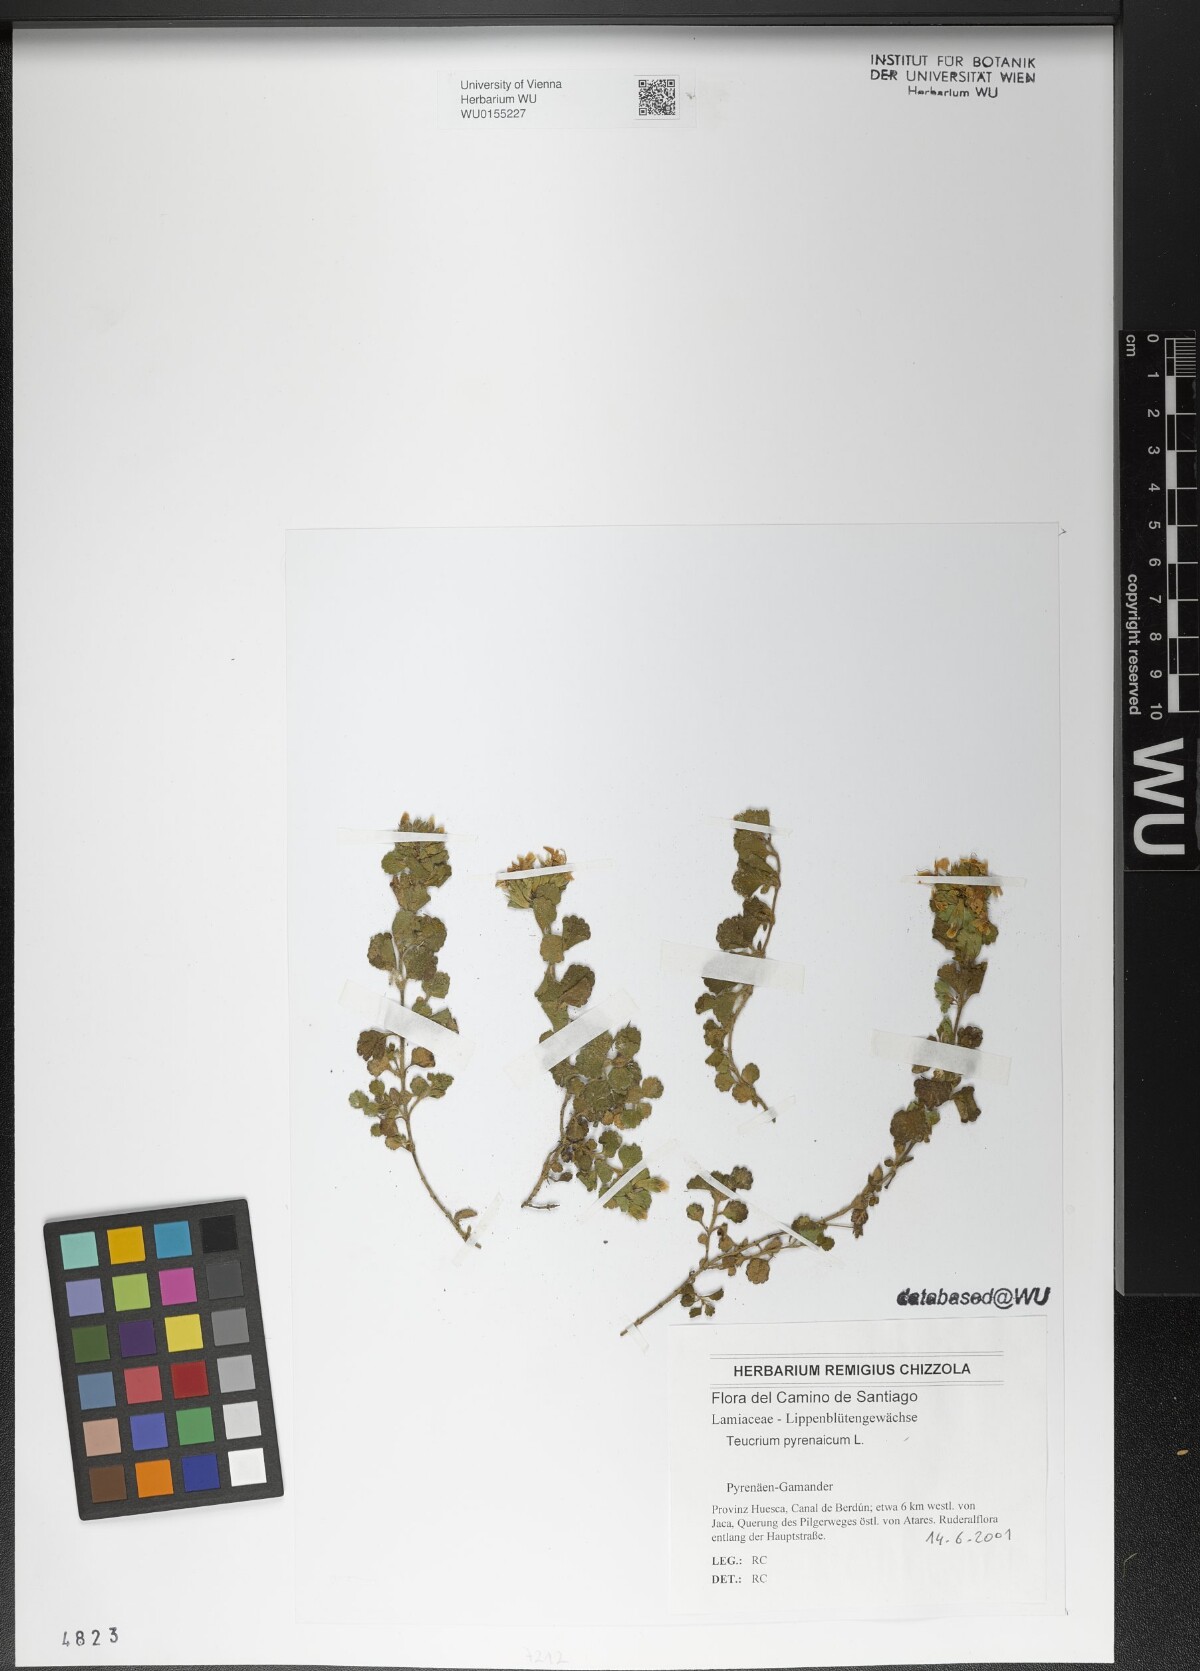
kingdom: Plantae
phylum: Tracheophyta
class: Magnoliopsida
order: Lamiales
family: Lamiaceae
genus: Teucrium
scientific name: Teucrium pyrenaicum
